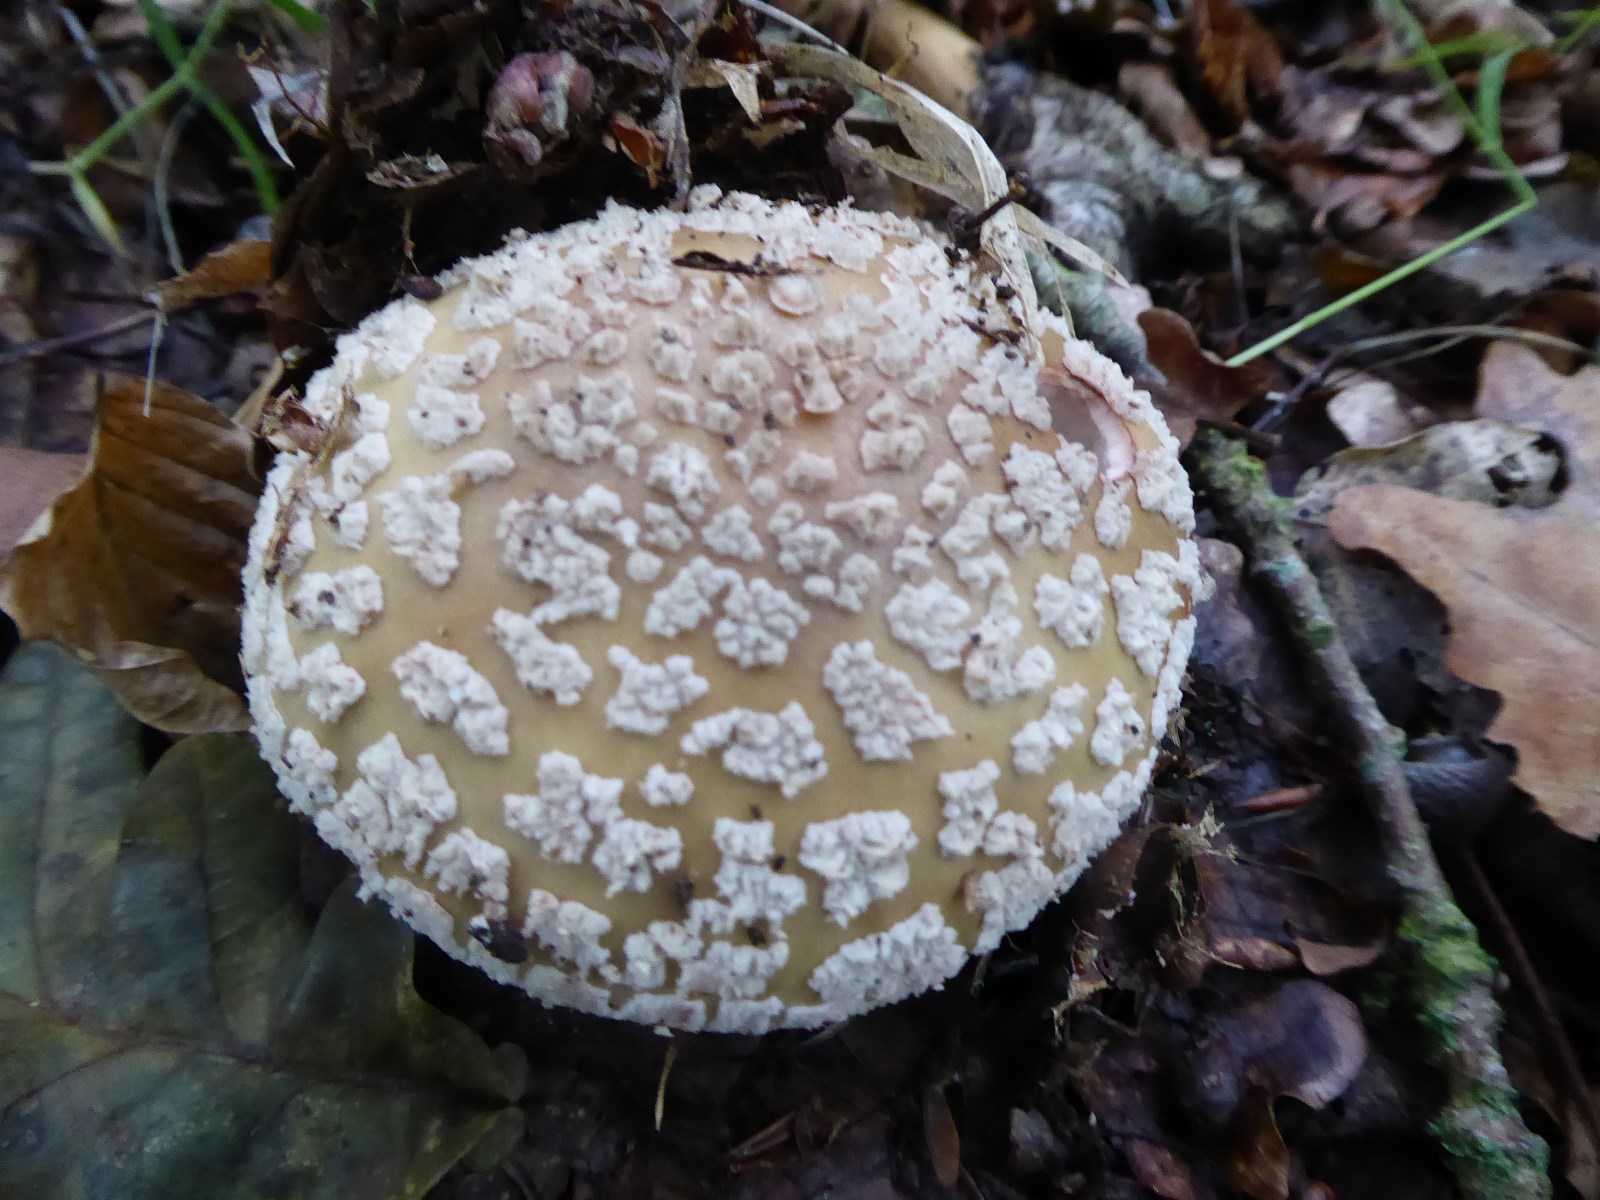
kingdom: Fungi
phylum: Basidiomycota
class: Agaricomycetes
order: Agaricales
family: Amanitaceae
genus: Amanita
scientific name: Amanita rubescens
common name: rødmende fluesvamp
